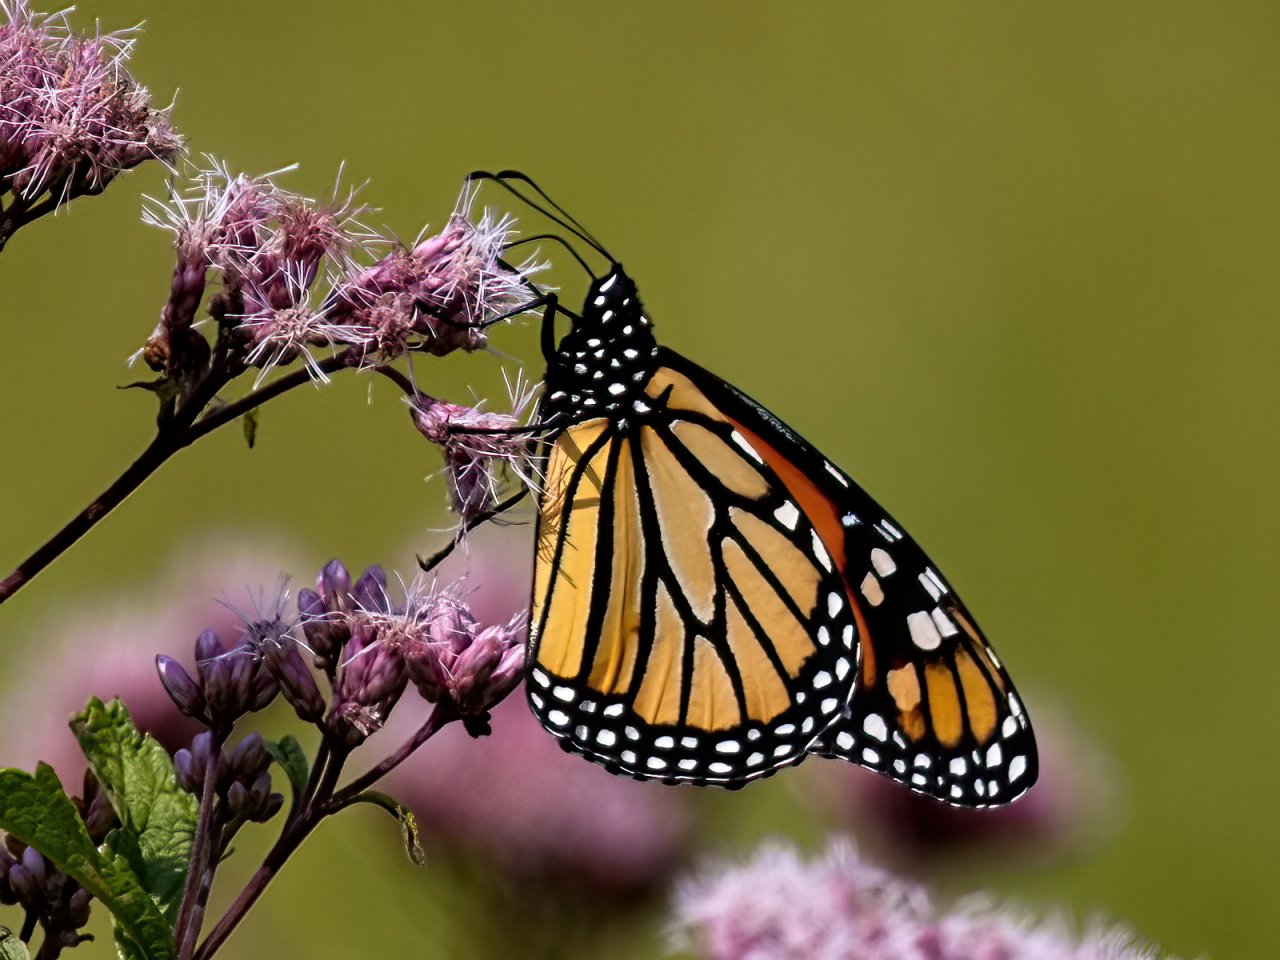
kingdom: Animalia
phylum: Arthropoda
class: Insecta
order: Lepidoptera
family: Nymphalidae
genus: Danaus
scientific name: Danaus plexippus
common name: Monarch
